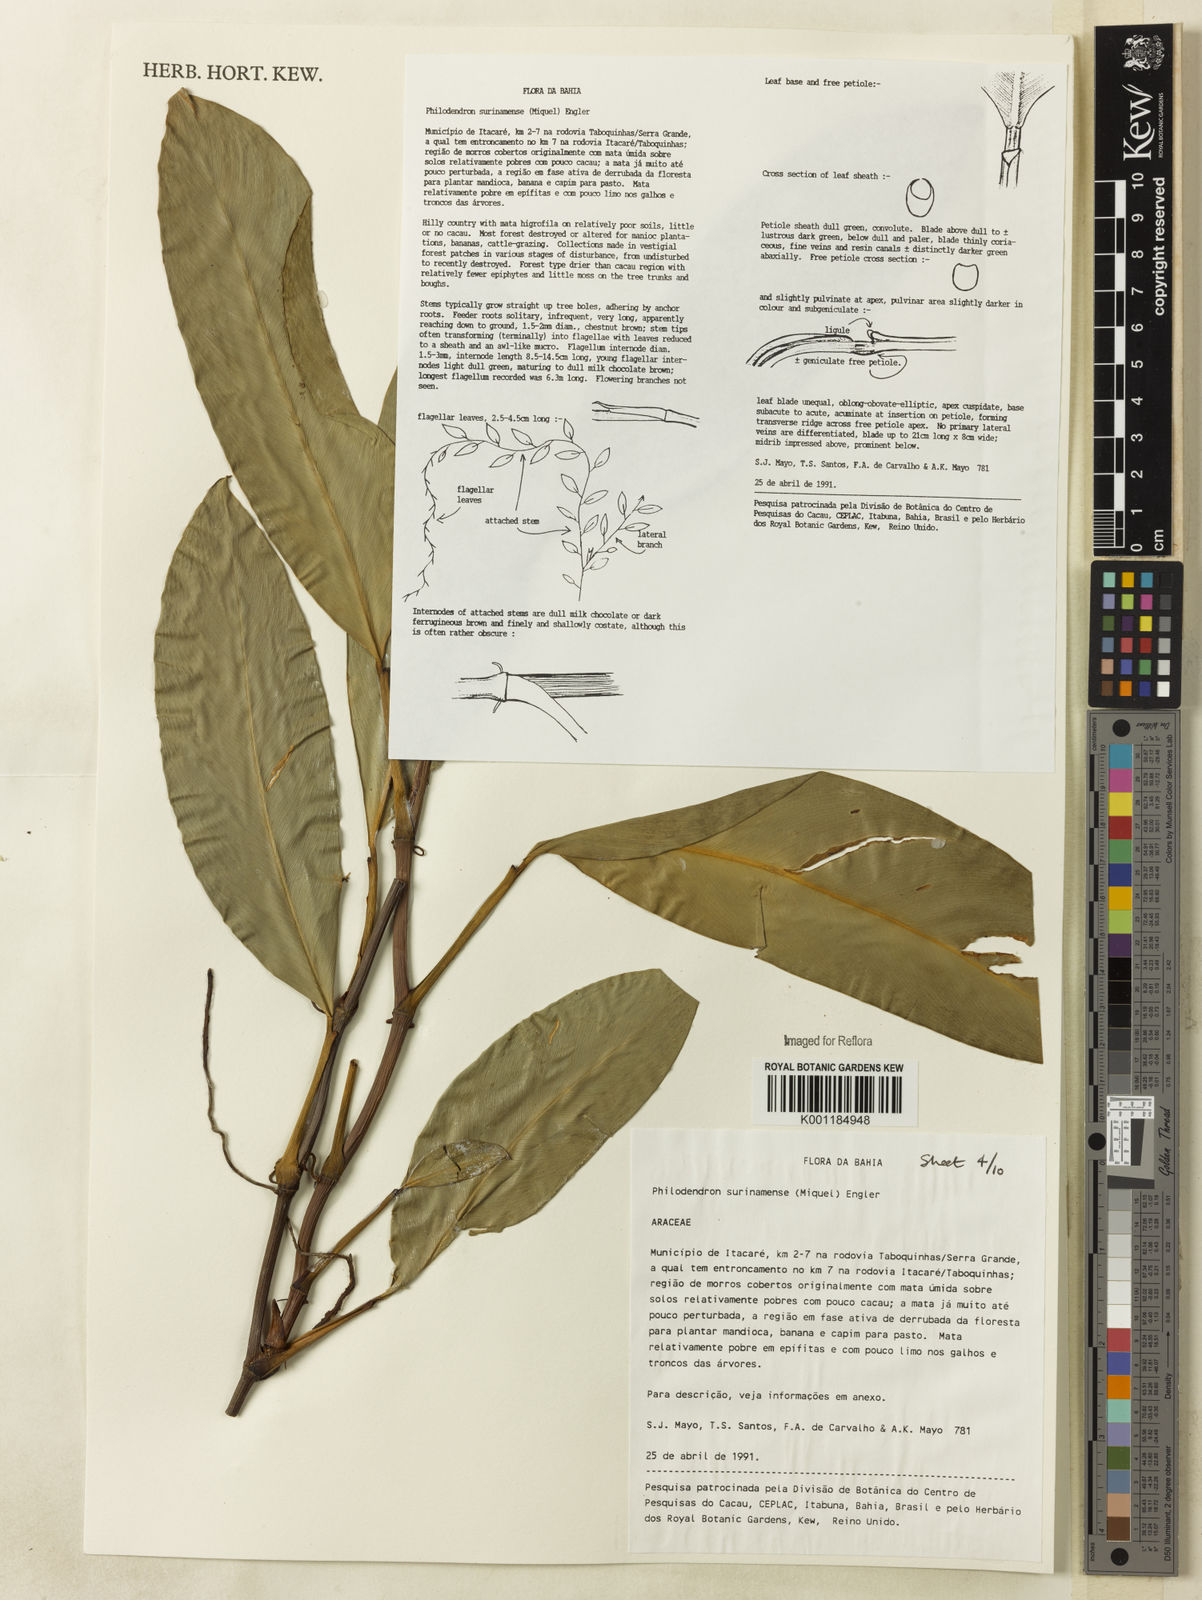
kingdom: Plantae
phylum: Tracheophyta
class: Liliopsida
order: Alismatales
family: Araceae
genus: Philodendron
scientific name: Philodendron surinamense
